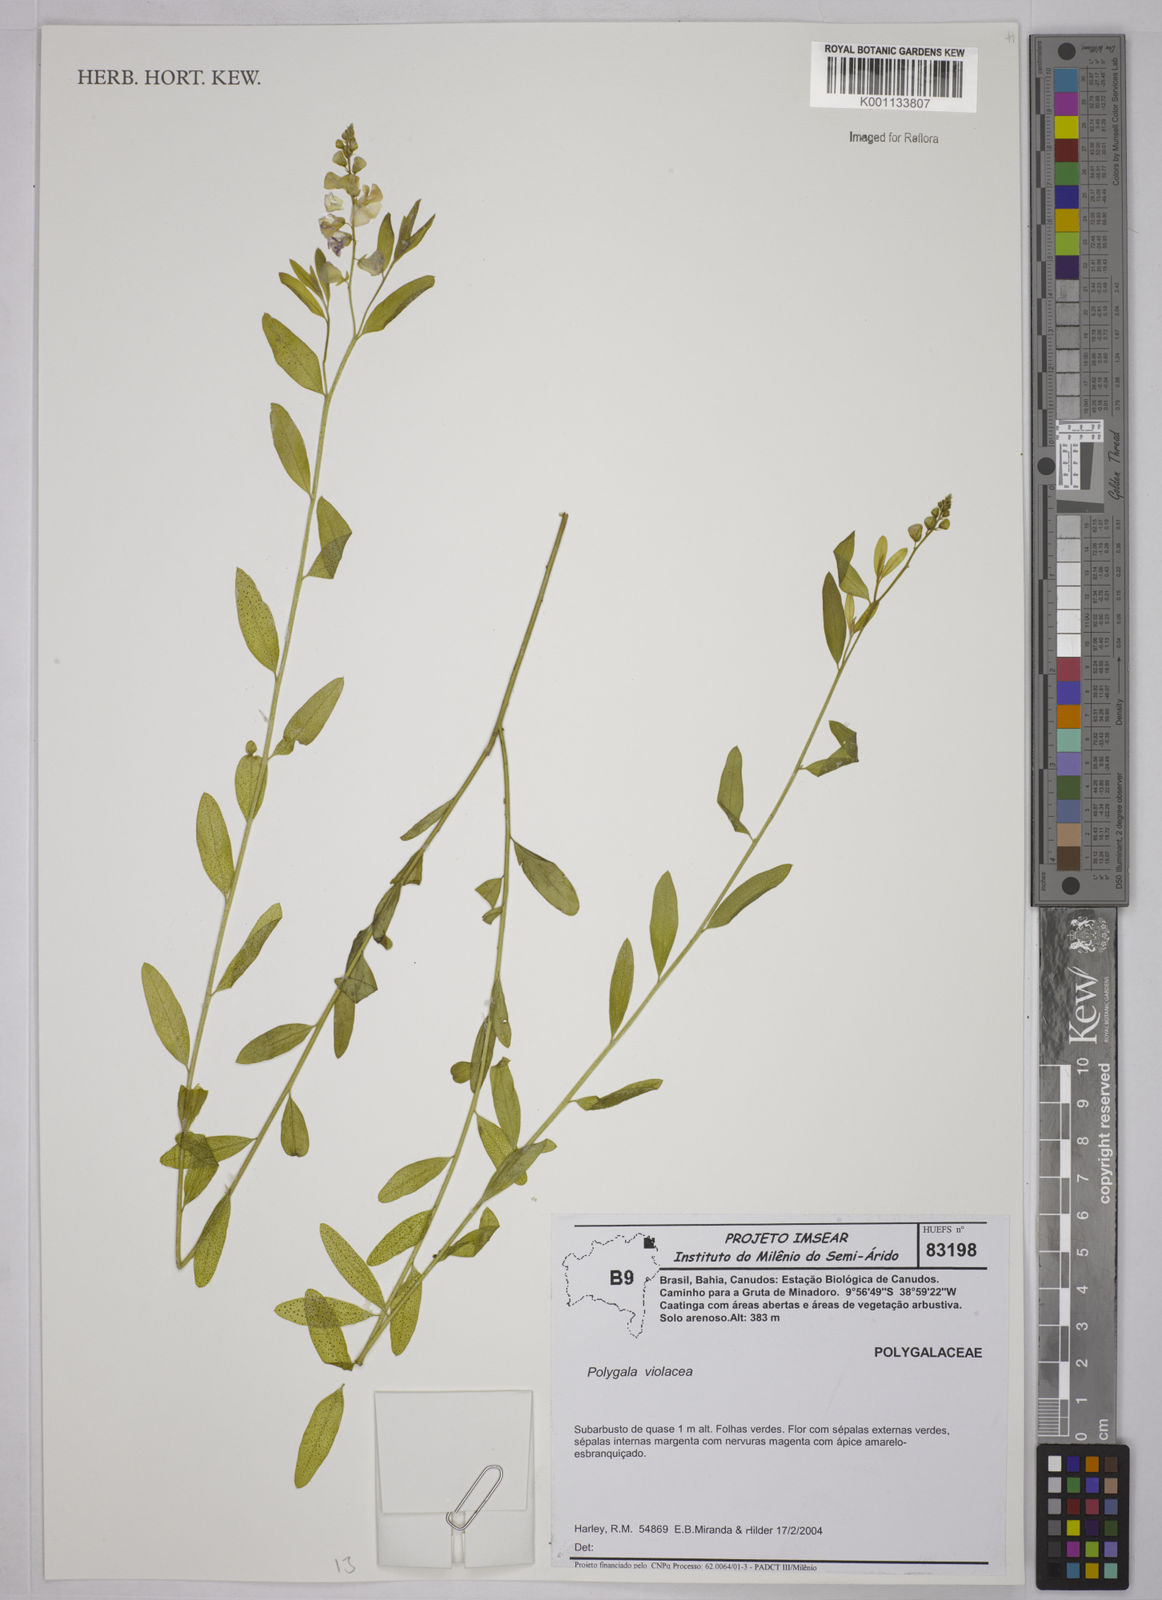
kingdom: Plantae
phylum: Tracheophyta
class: Magnoliopsida
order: Fabales
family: Polygalaceae
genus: Polygala
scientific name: Polygala
